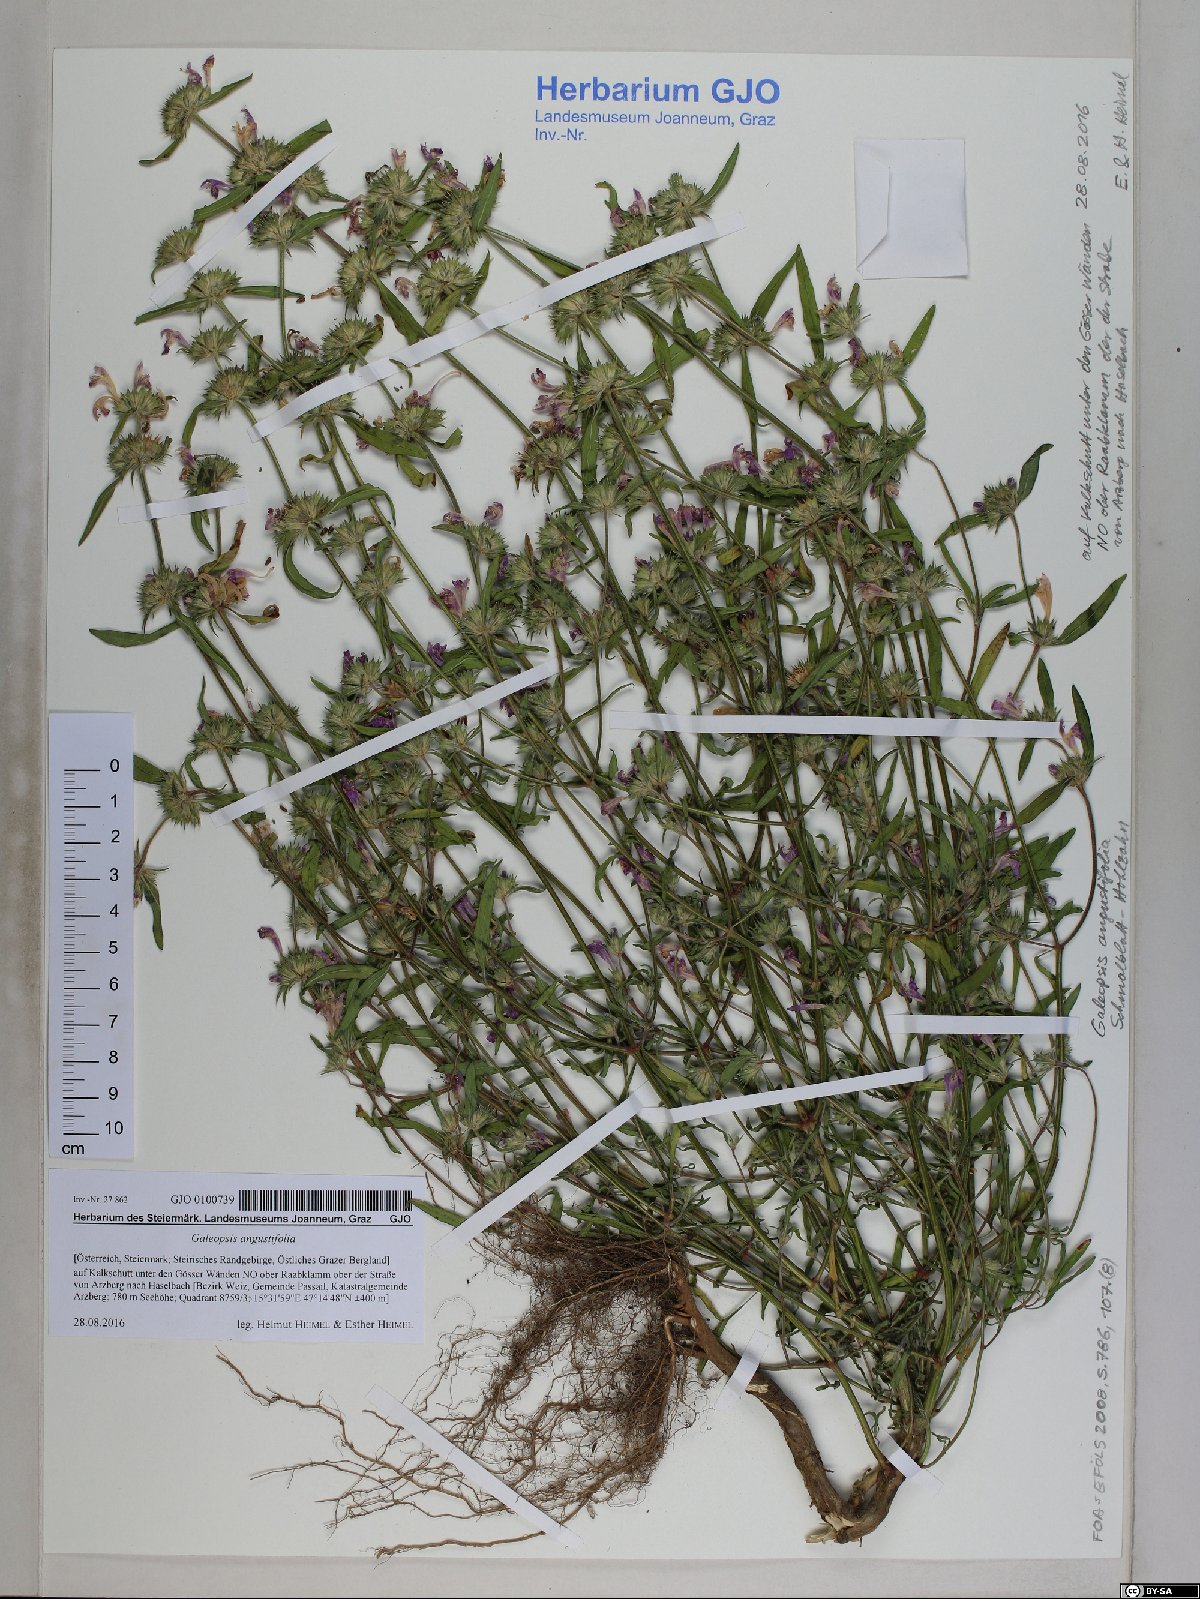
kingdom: Plantae
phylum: Tracheophyta
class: Magnoliopsida
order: Lamiales
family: Lamiaceae
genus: Galeopsis
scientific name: Galeopsis angustifolia
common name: Red hemp-nettle
